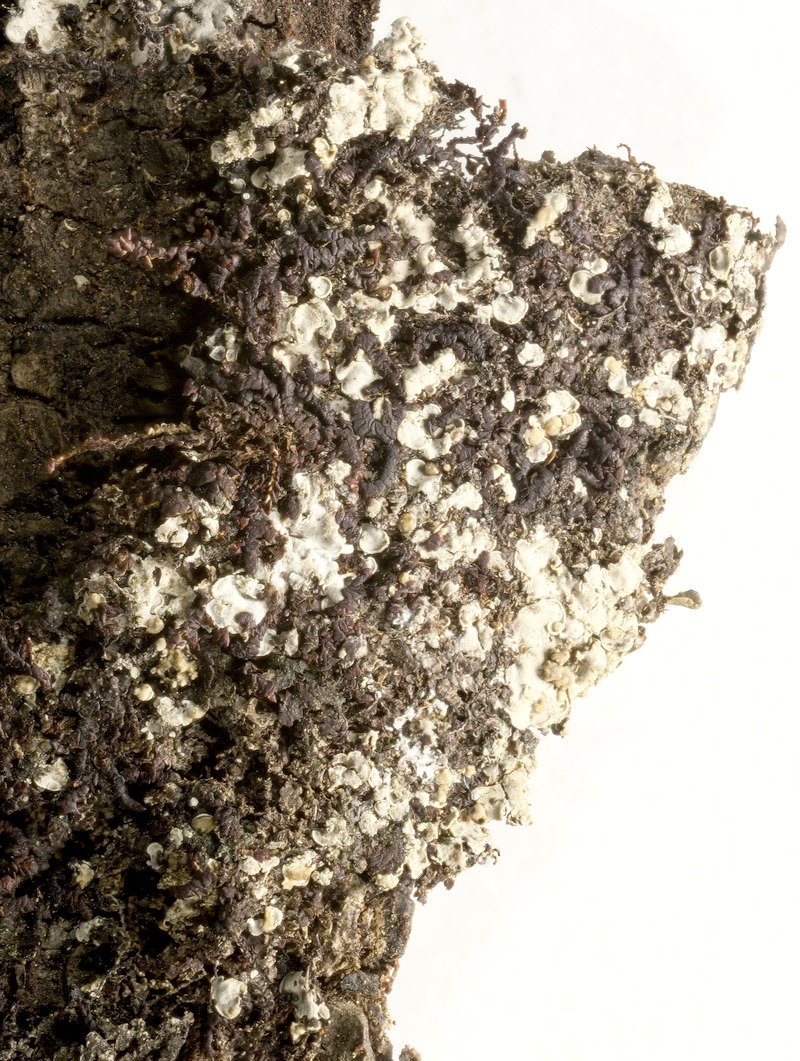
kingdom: Fungi
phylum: Basidiomycota
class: Tremellomycetes
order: Tremellales
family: Tremellaceae
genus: Tremella
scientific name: Tremella normandinae
